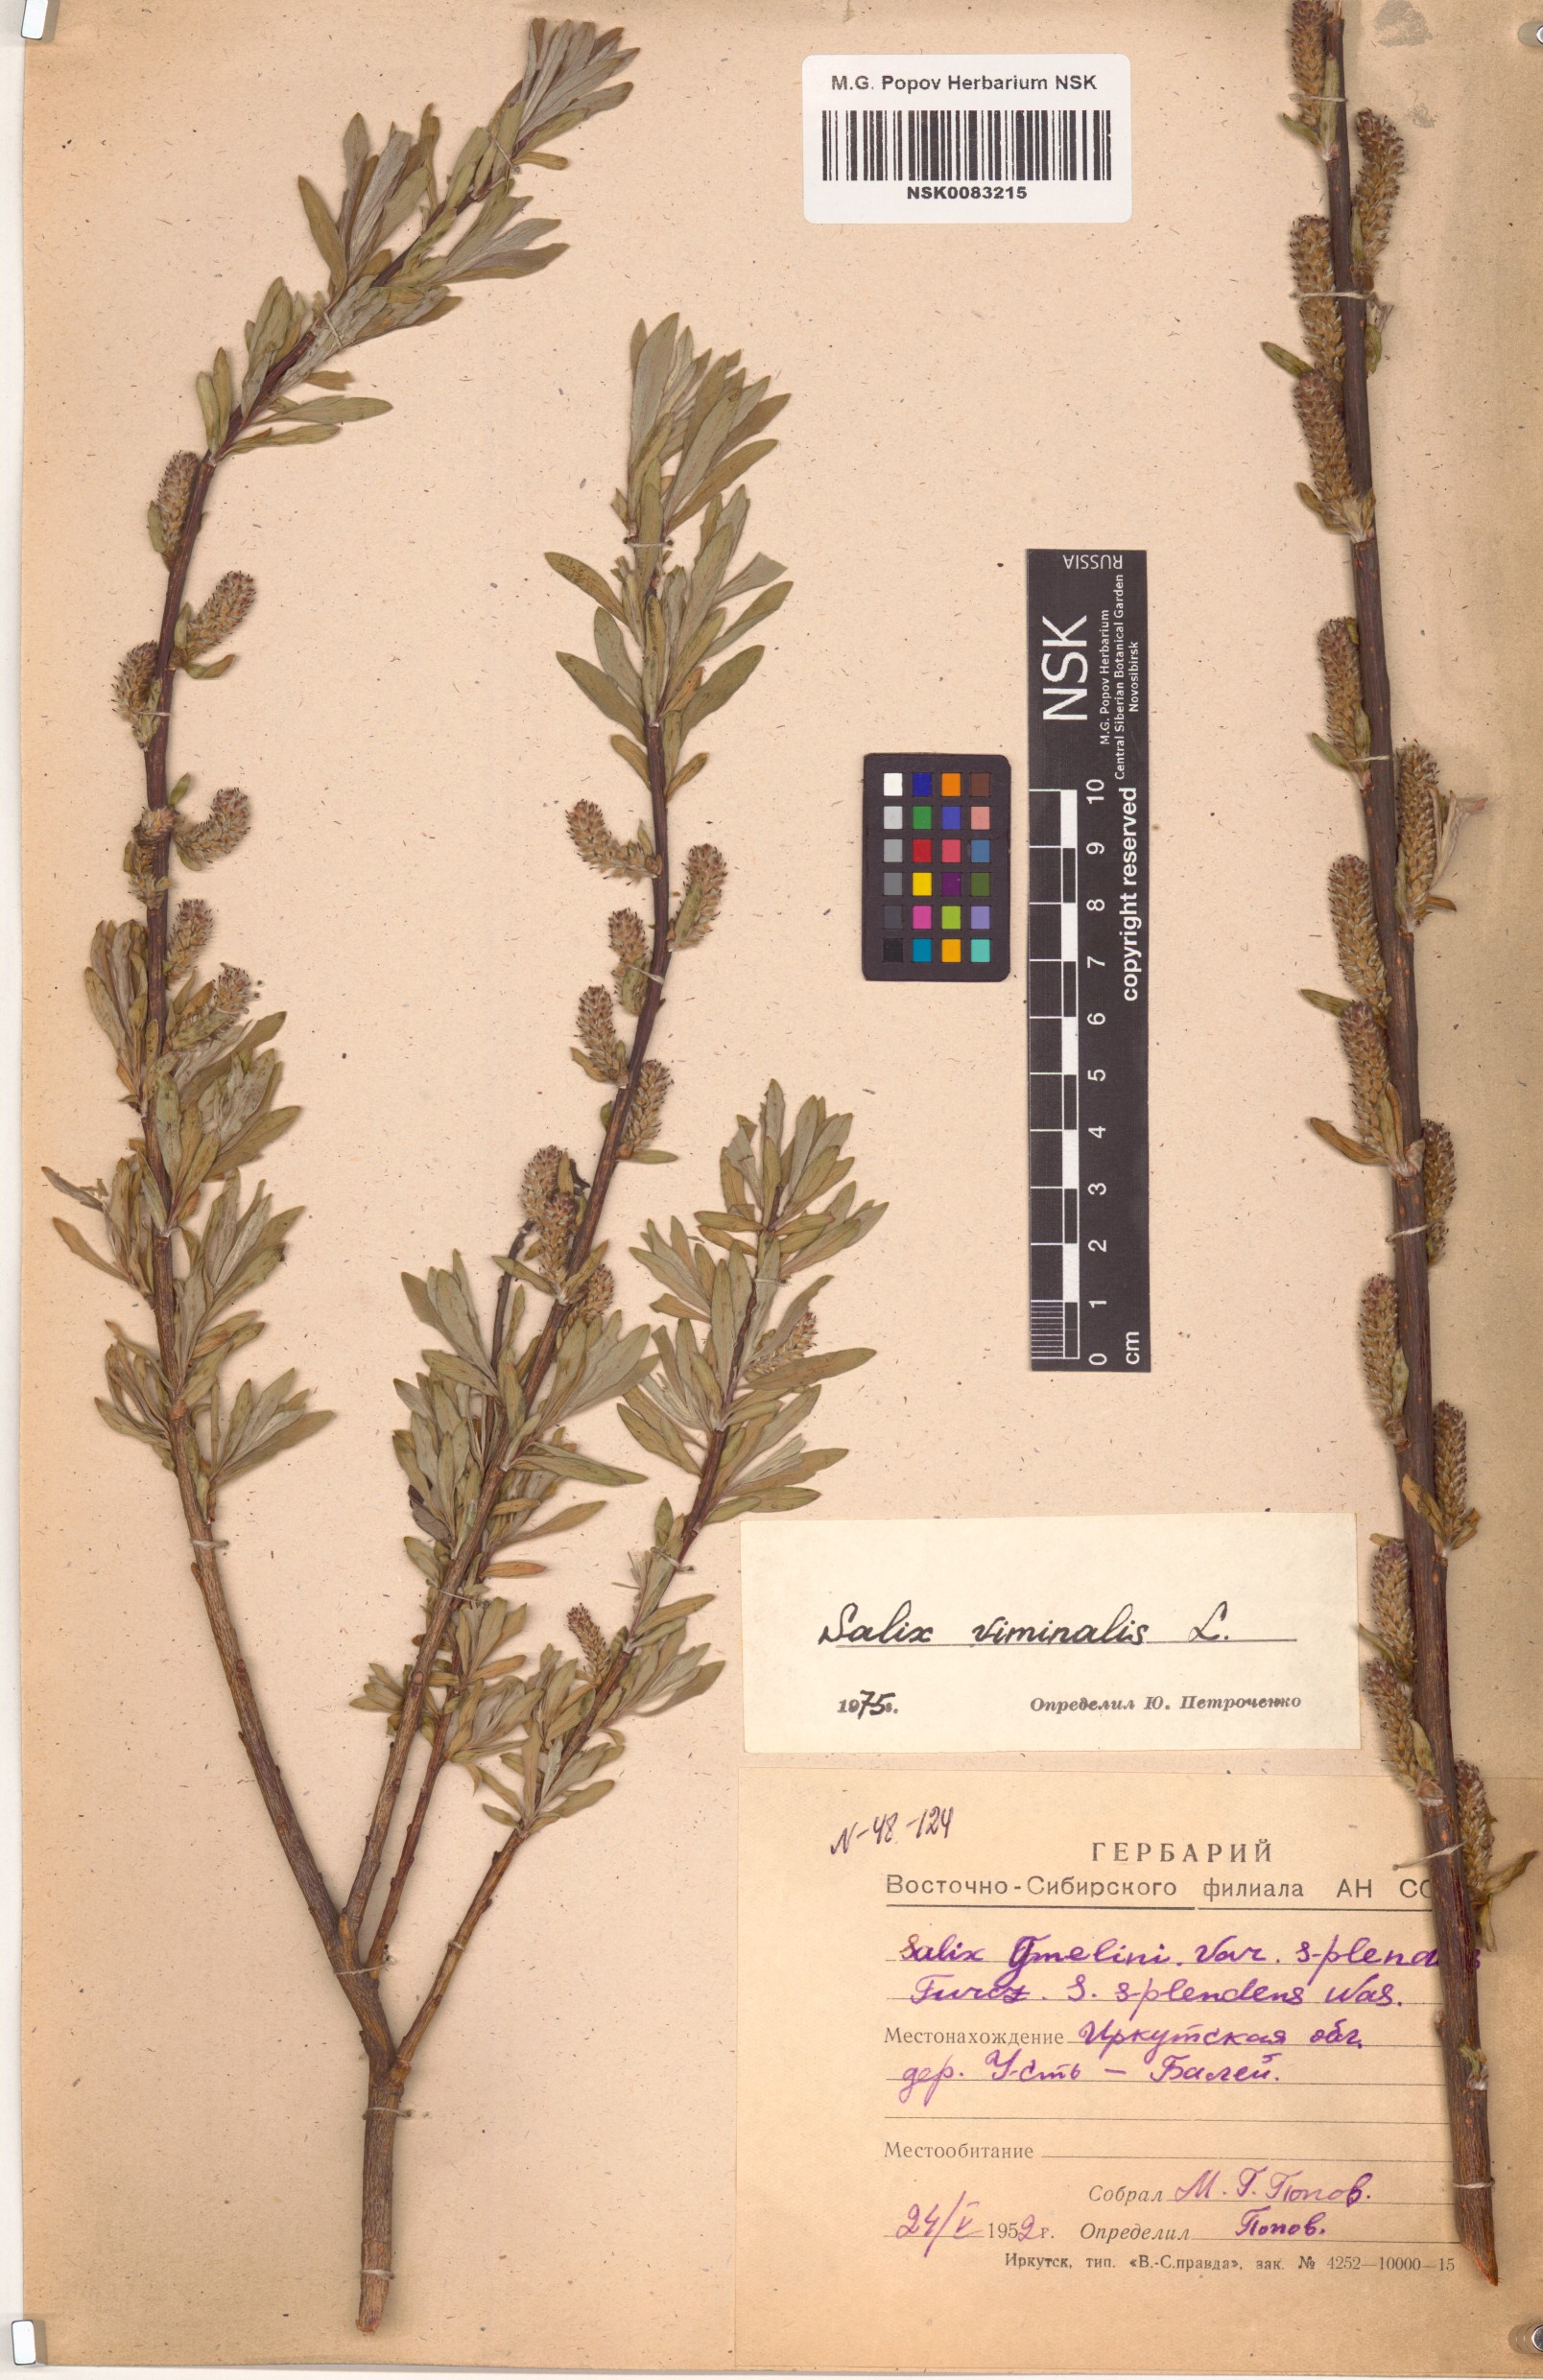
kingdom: Plantae
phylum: Tracheophyta
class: Magnoliopsida
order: Malpighiales
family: Salicaceae
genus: Salix
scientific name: Salix viminalis
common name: Osier
